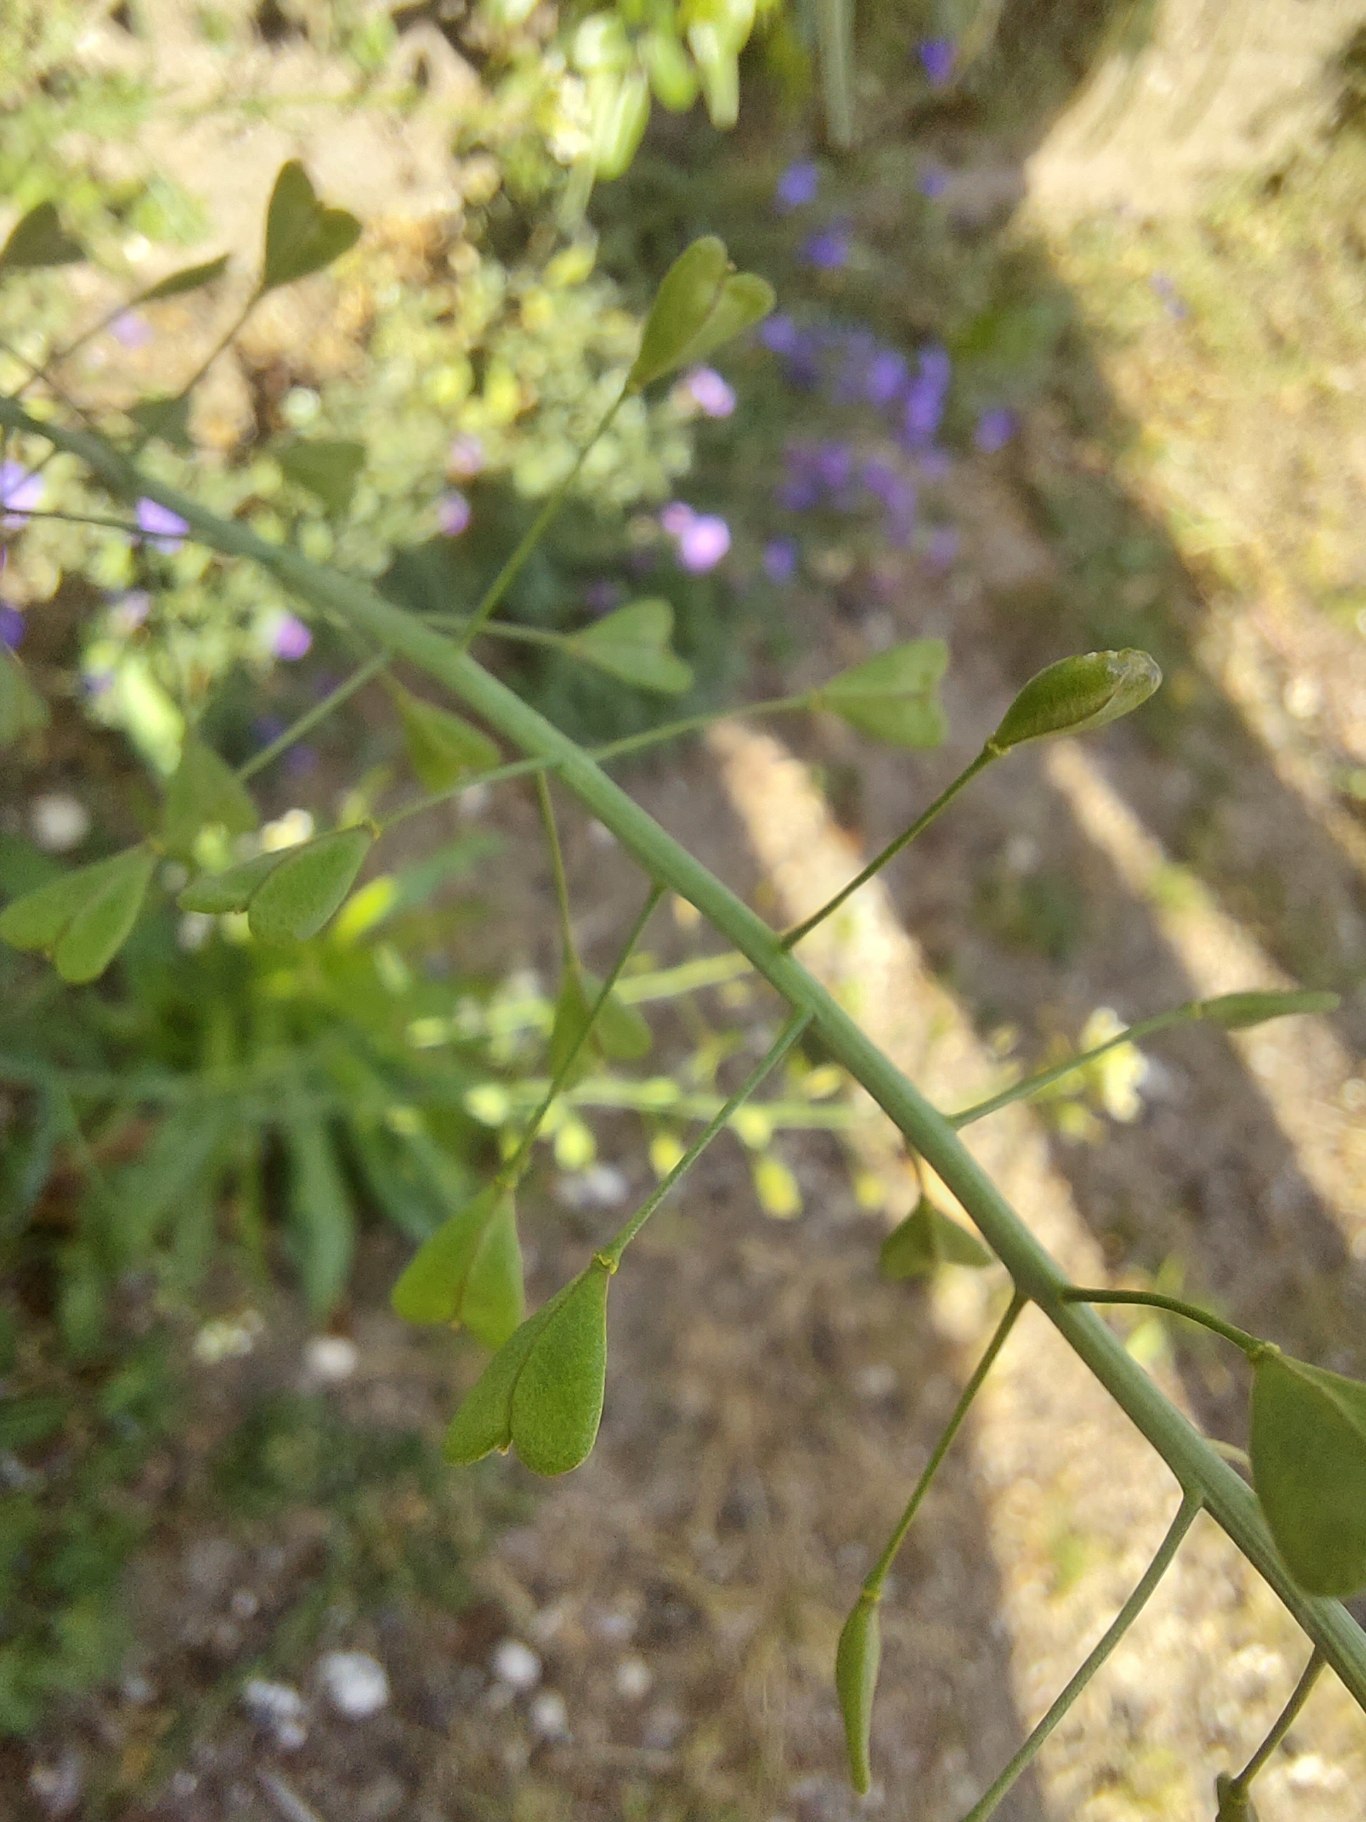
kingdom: Plantae
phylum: Tracheophyta
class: Magnoliopsida
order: Brassicales
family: Brassicaceae
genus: Capsella
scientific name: Capsella bursa-pastoris
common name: Hyrdetaske
